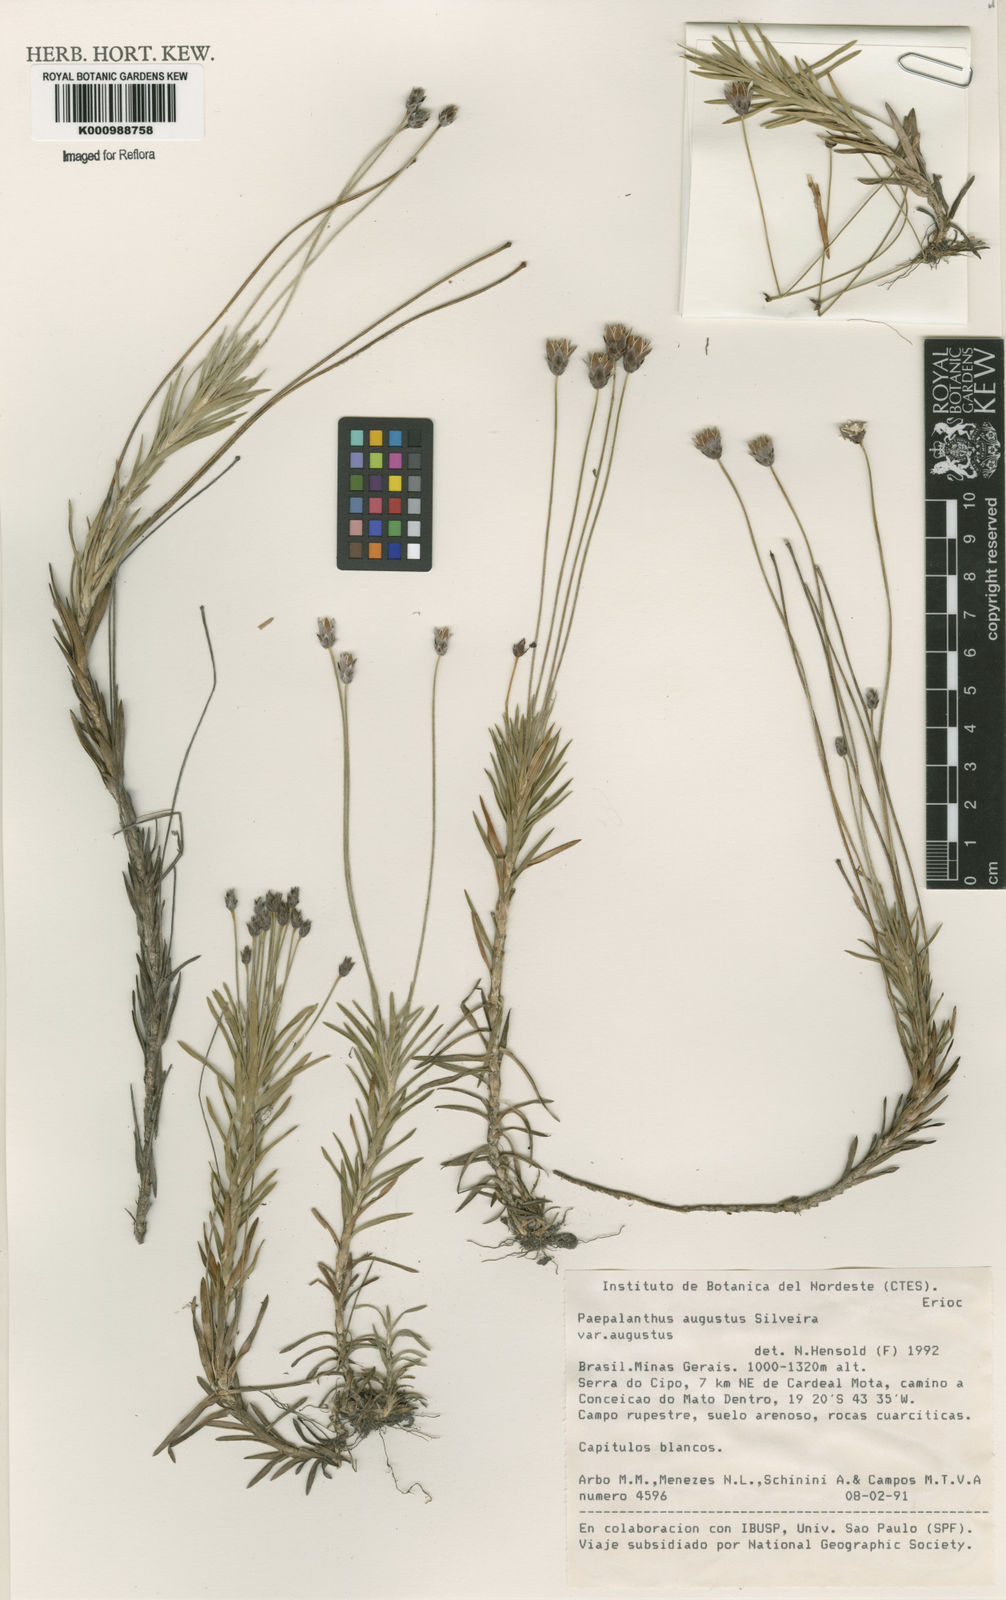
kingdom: Plantae
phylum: Tracheophyta
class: Liliopsida
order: Poales
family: Eriocaulaceae
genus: Paepalanthus
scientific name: Paepalanthus augustus
